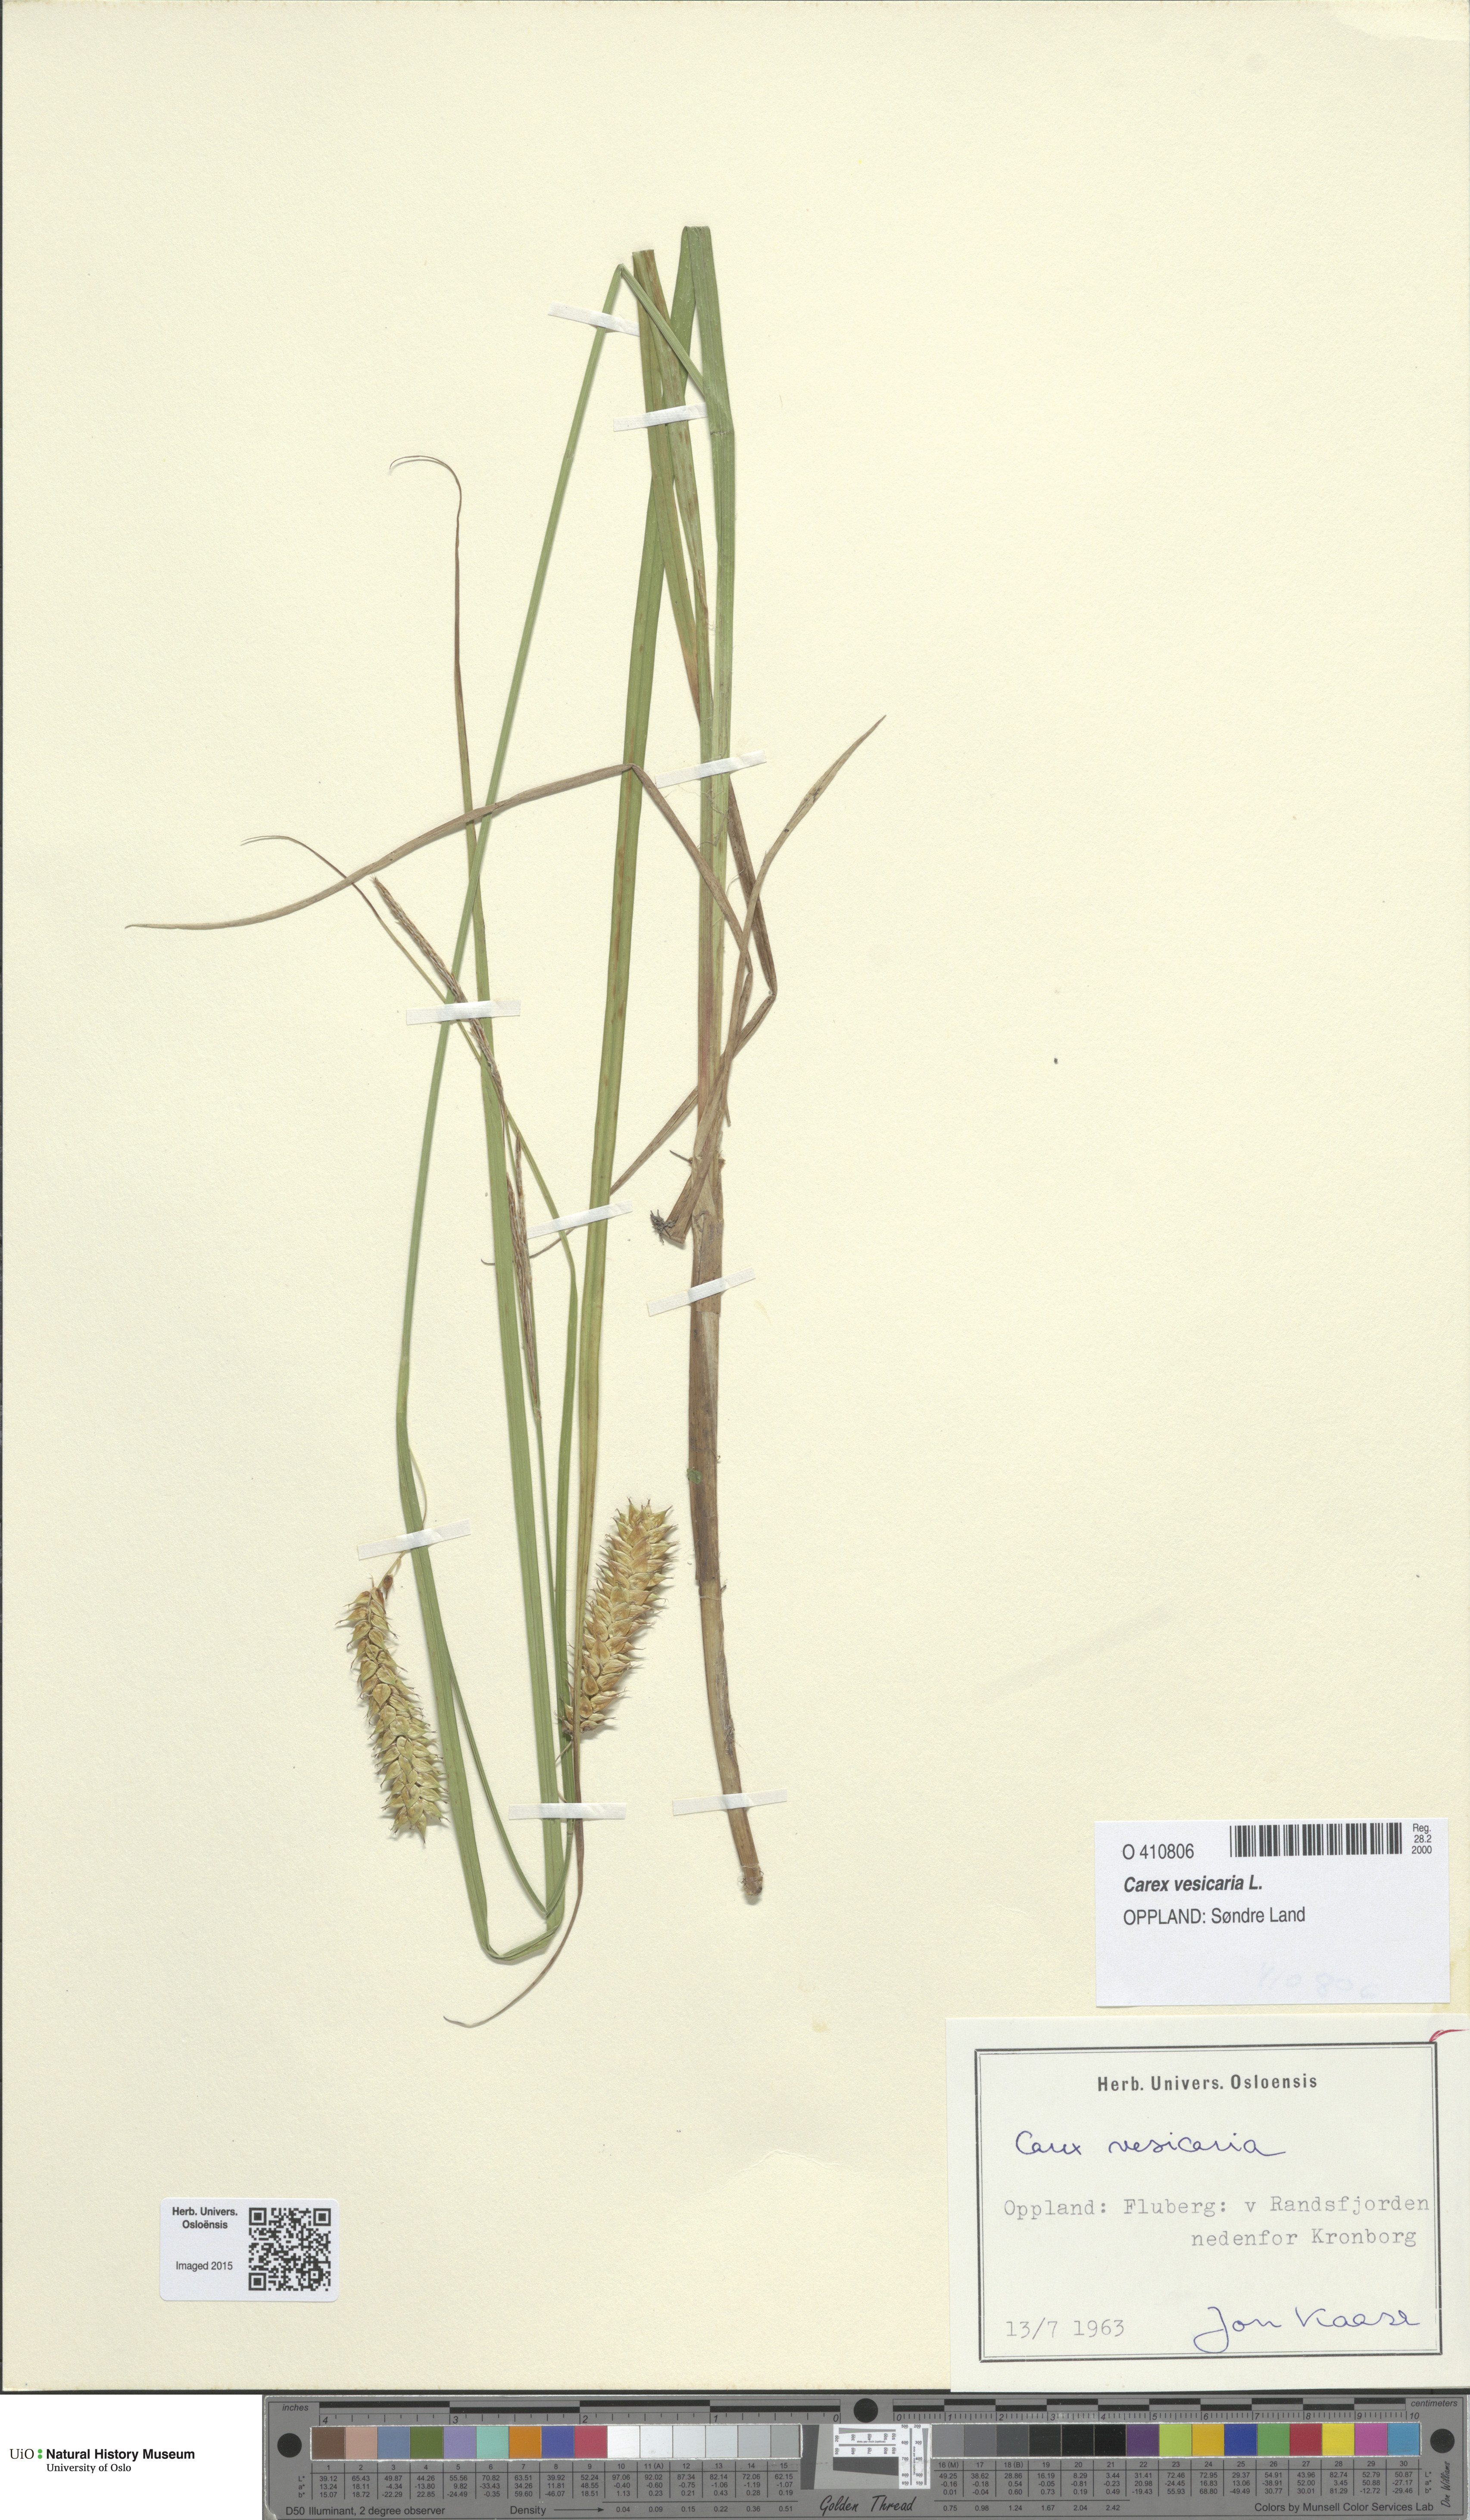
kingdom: Plantae
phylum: Tracheophyta
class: Liliopsida
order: Poales
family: Cyperaceae
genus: Carex
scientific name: Carex vesicaria
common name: Bladder-sedge
